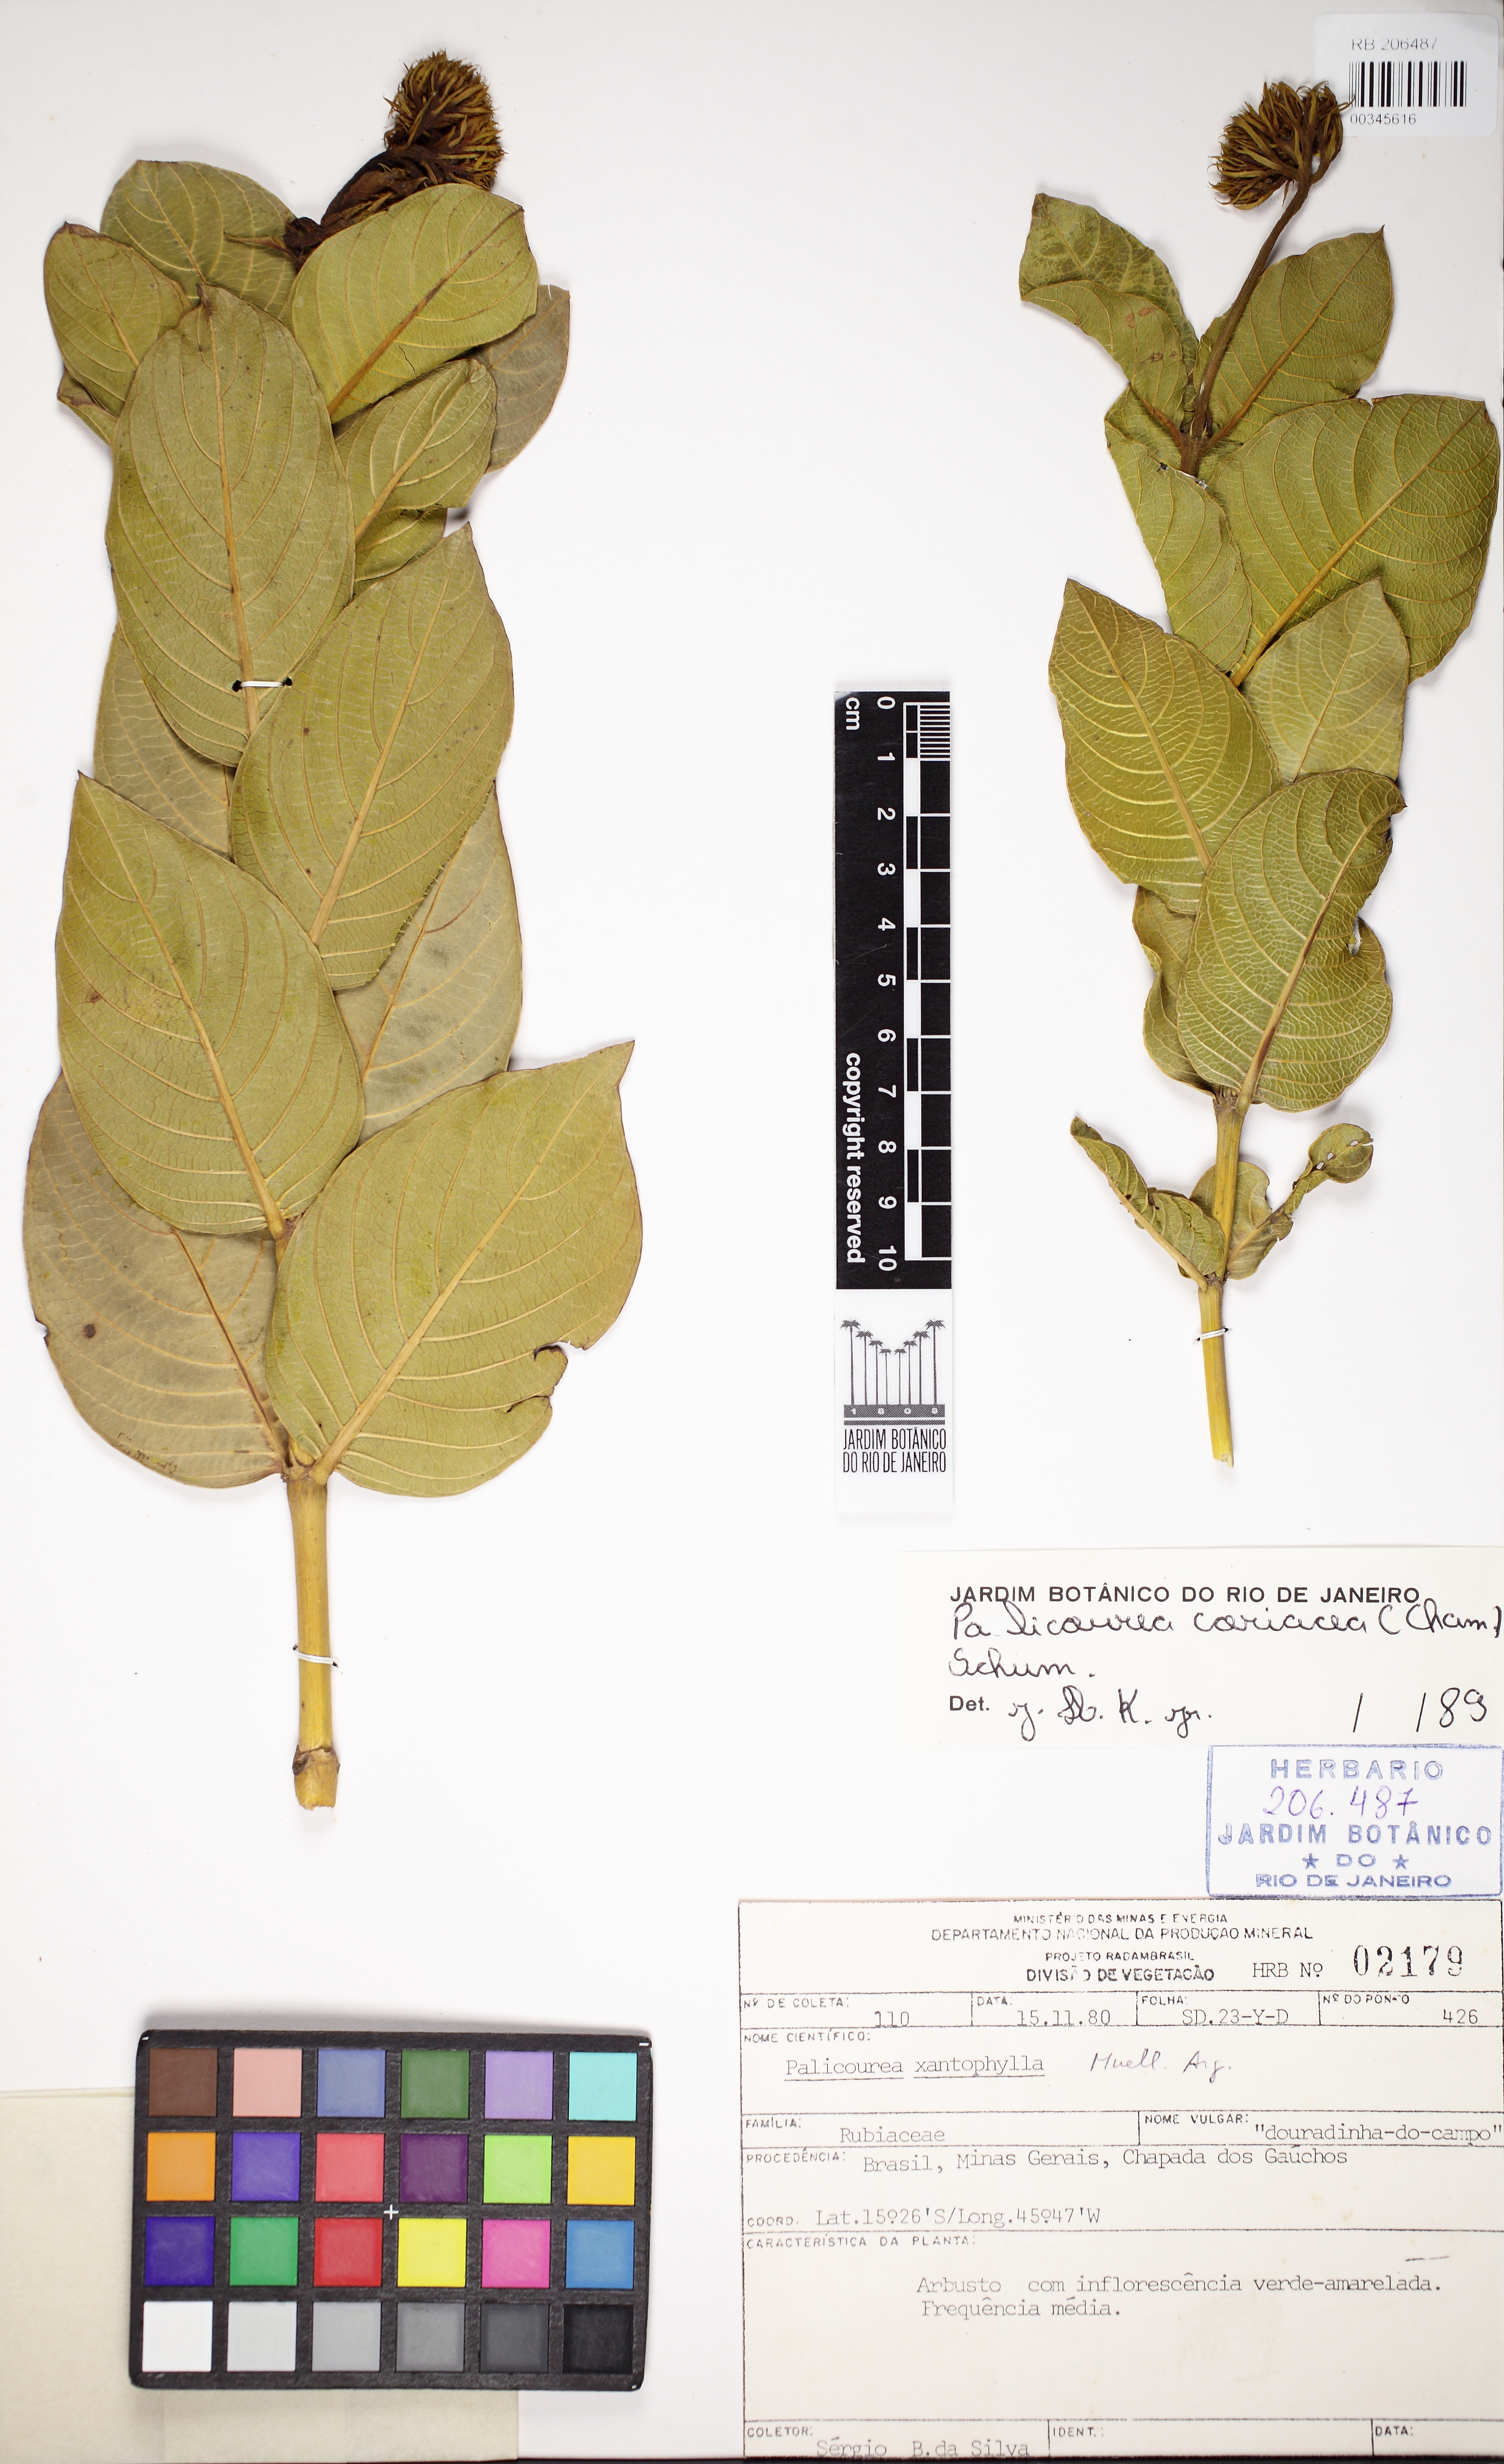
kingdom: Plantae
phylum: Tracheophyta
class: Magnoliopsida
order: Gentianales
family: Rubiaceae
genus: Palicourea
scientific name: Palicourea coriacea
